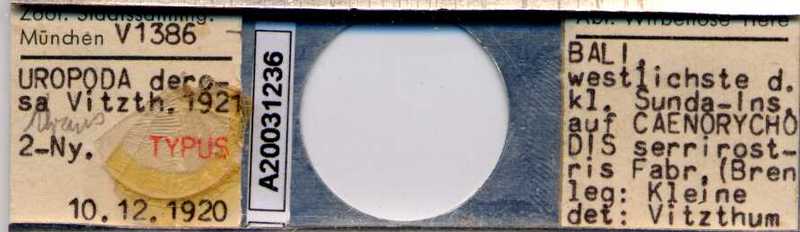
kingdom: Animalia
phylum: Arthropoda
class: Arachnida
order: Mesostigmata
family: Trematuridae
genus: Trichouropoda
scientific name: Trichouropoda
